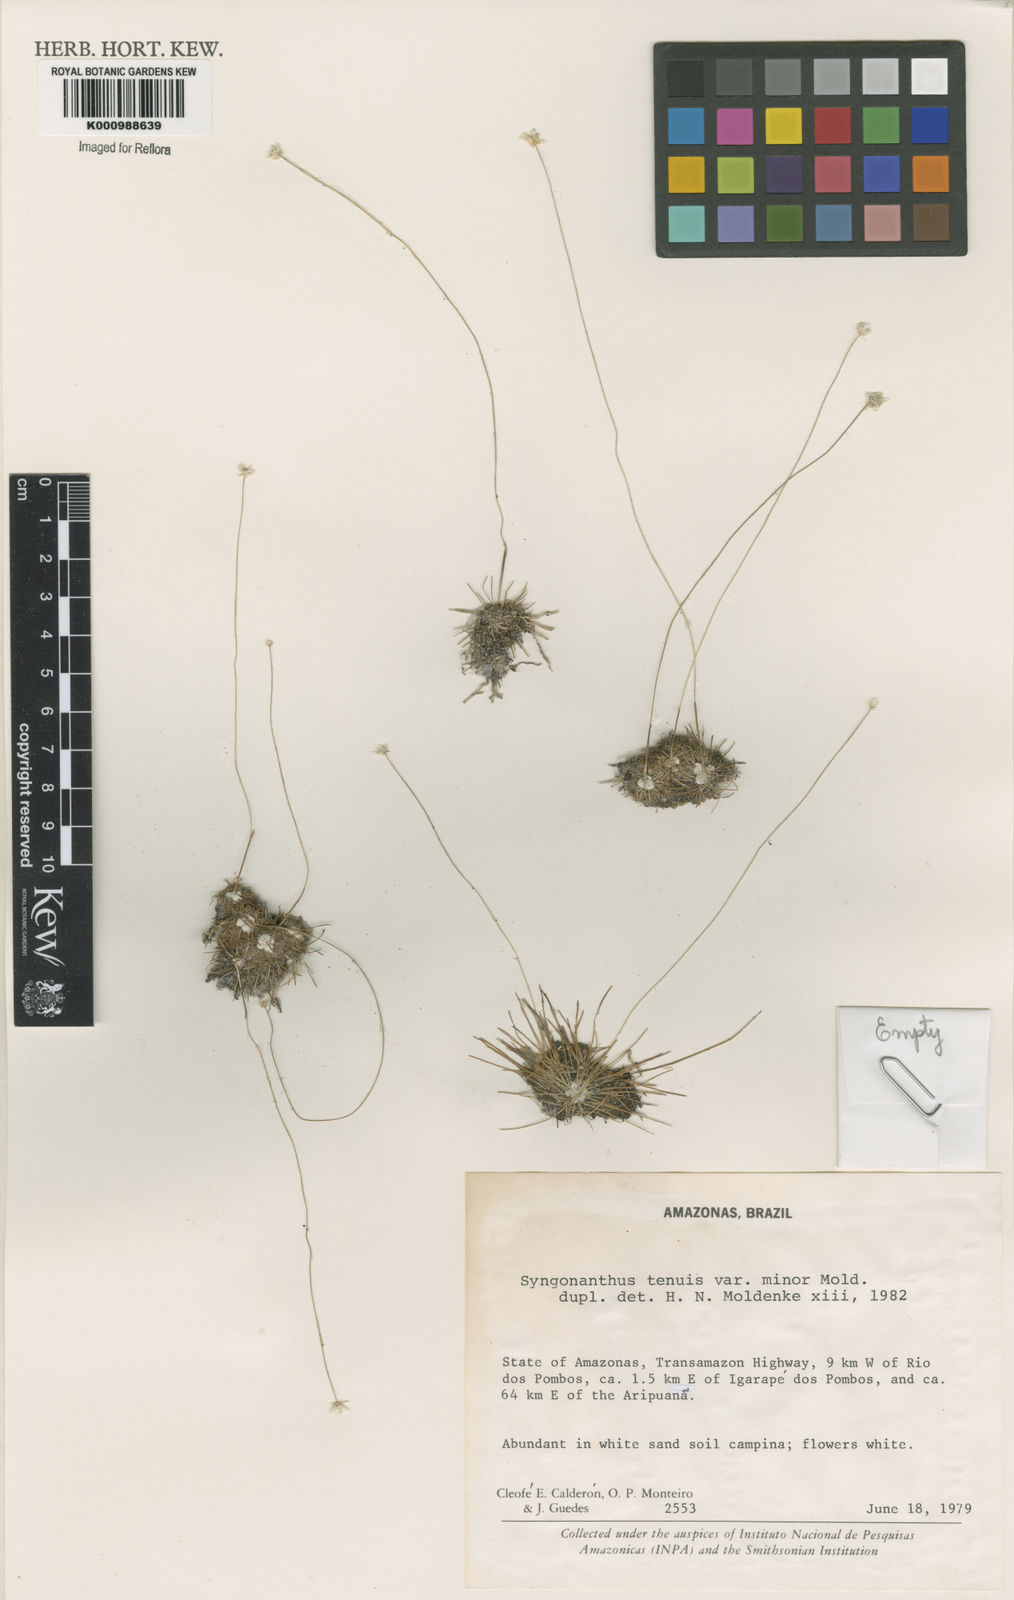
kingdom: Plantae
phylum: Tracheophyta
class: Liliopsida
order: Poales
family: Eriocaulaceae
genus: Syngonanthus
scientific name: Syngonanthus tenuis
